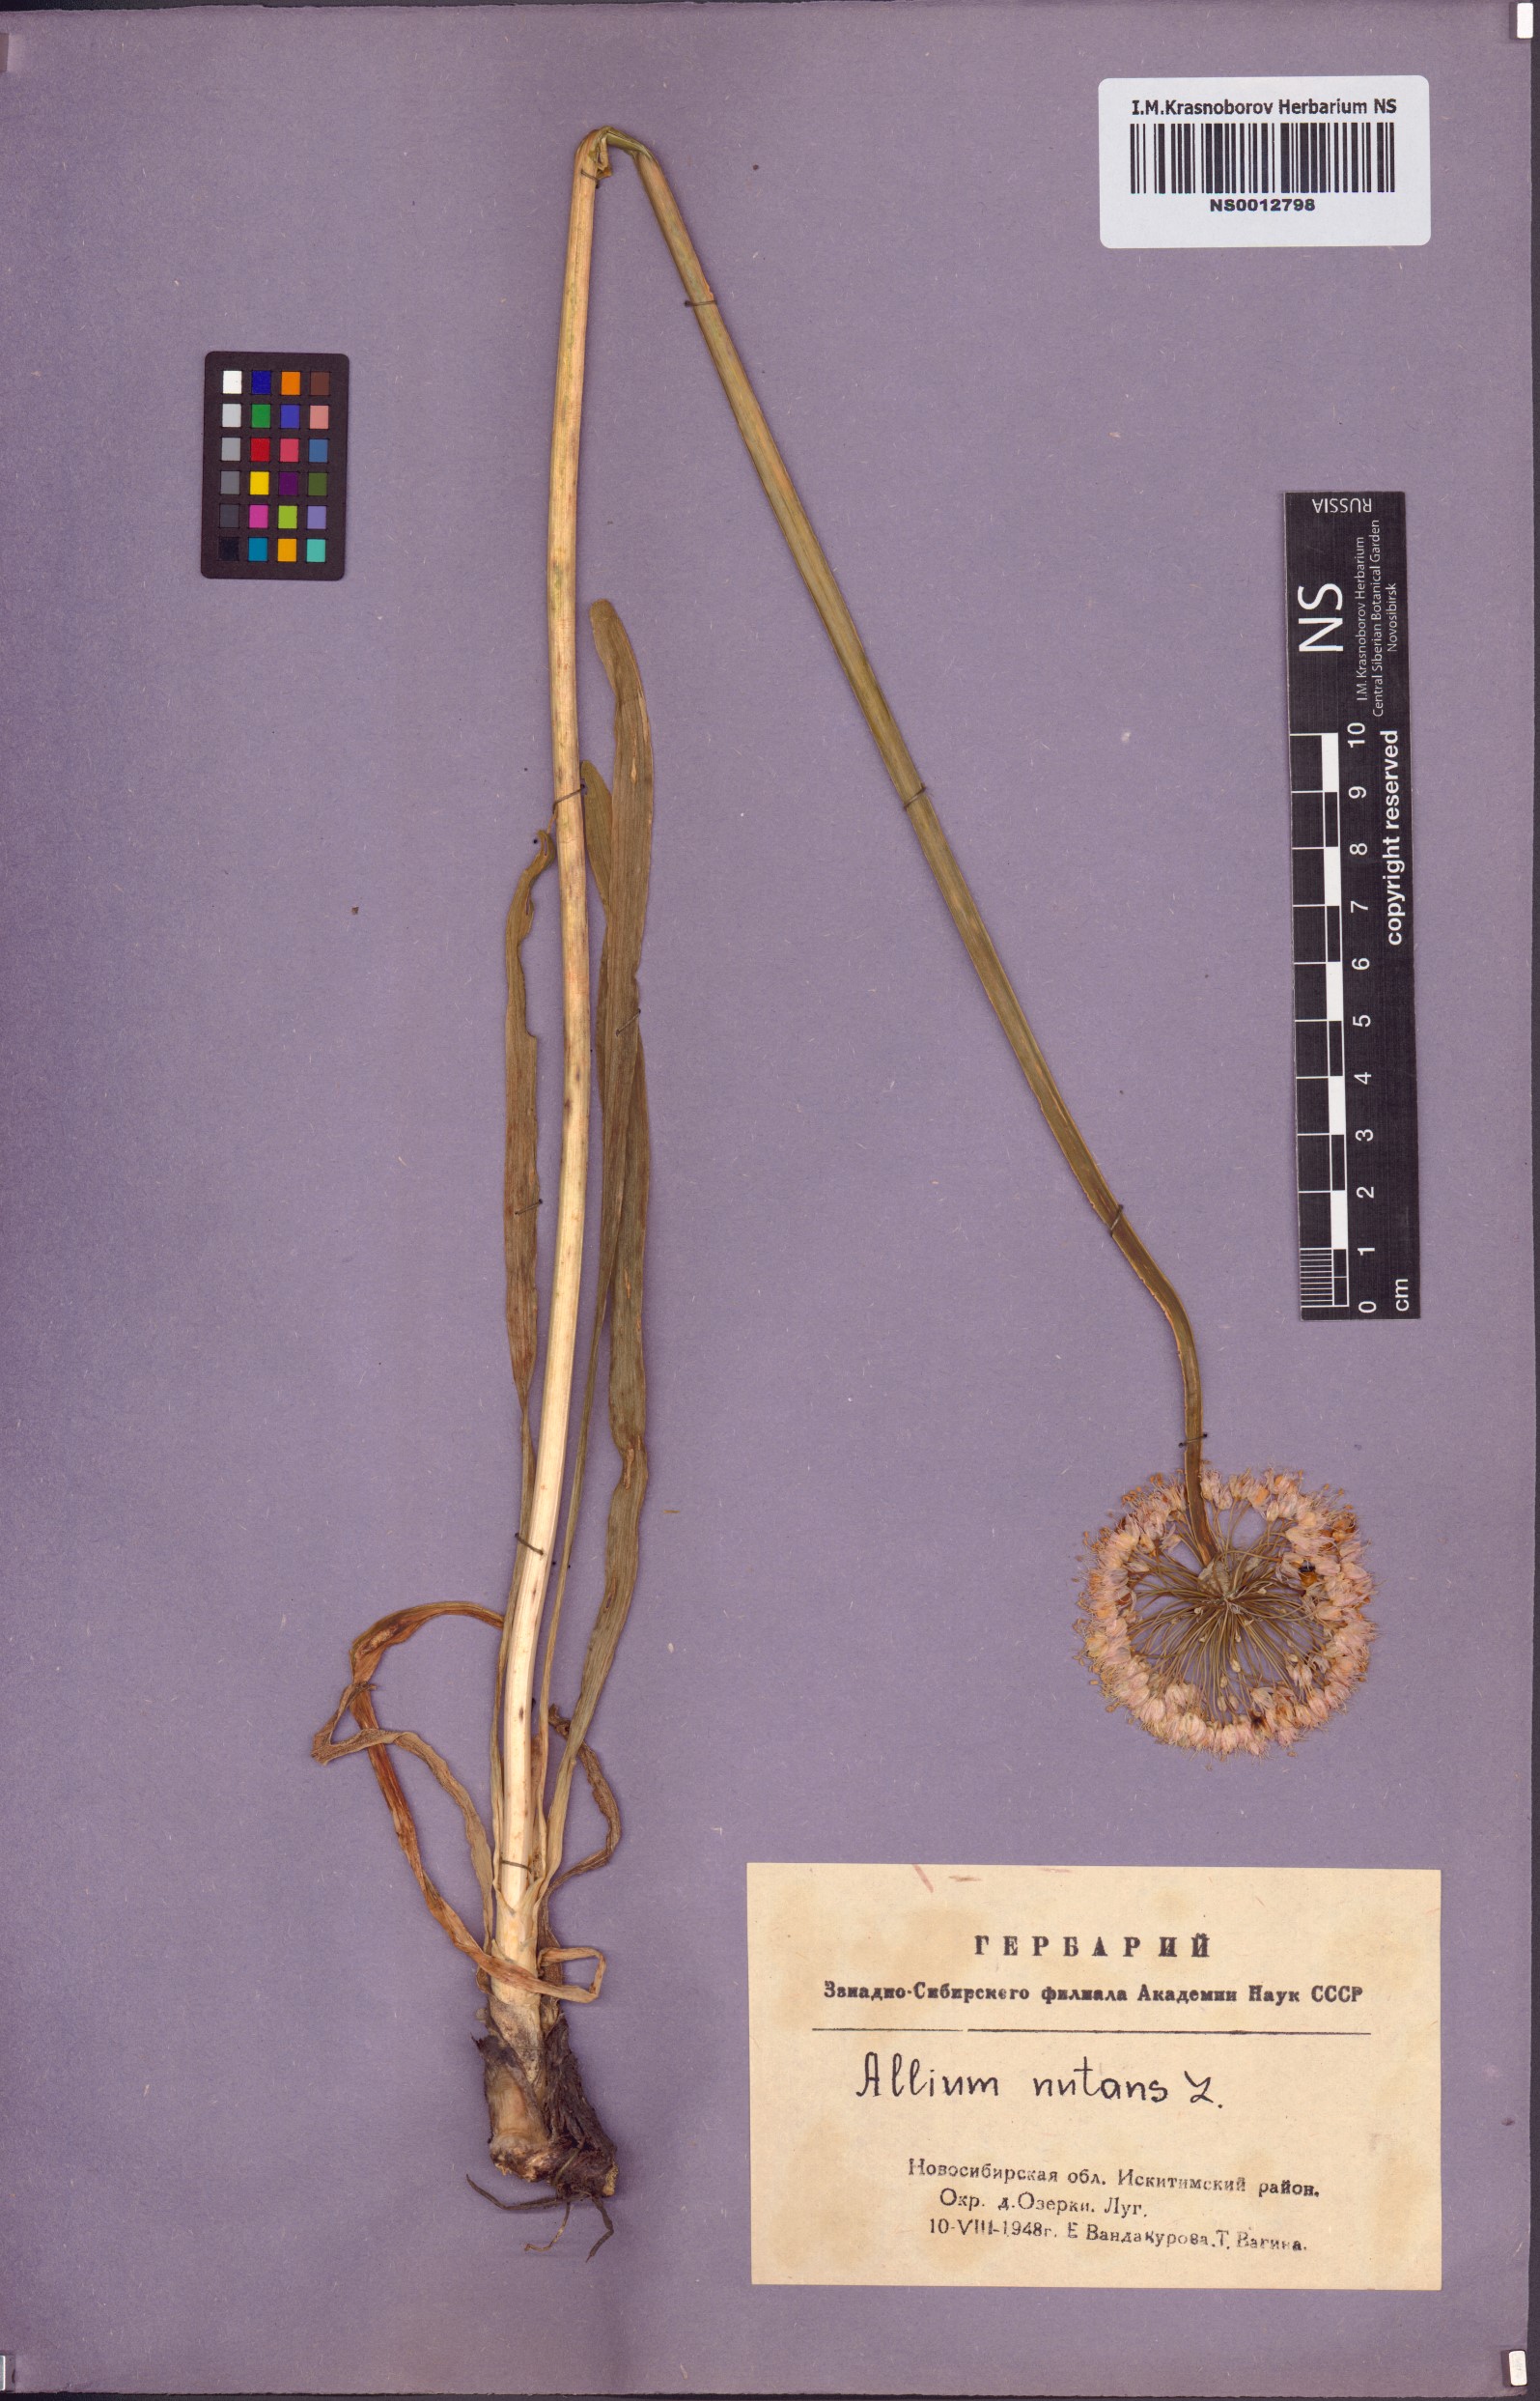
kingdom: Plantae
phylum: Tracheophyta
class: Liliopsida
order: Asparagales
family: Amaryllidaceae
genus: Allium
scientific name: Allium nutans
